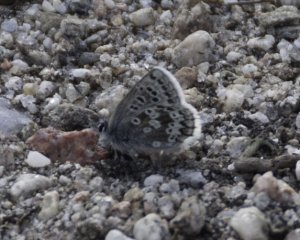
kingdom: Animalia
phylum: Arthropoda
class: Insecta
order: Lepidoptera
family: Lycaenidae
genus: Agriades
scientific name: Agriades glandon
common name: Arctic Blue
